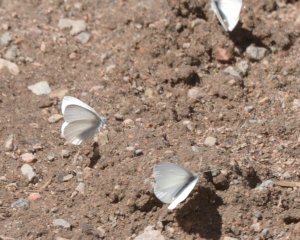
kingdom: Animalia
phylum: Arthropoda
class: Insecta
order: Lepidoptera
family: Pieridae
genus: Pieris
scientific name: Pieris virginiensis
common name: West Virginia White
